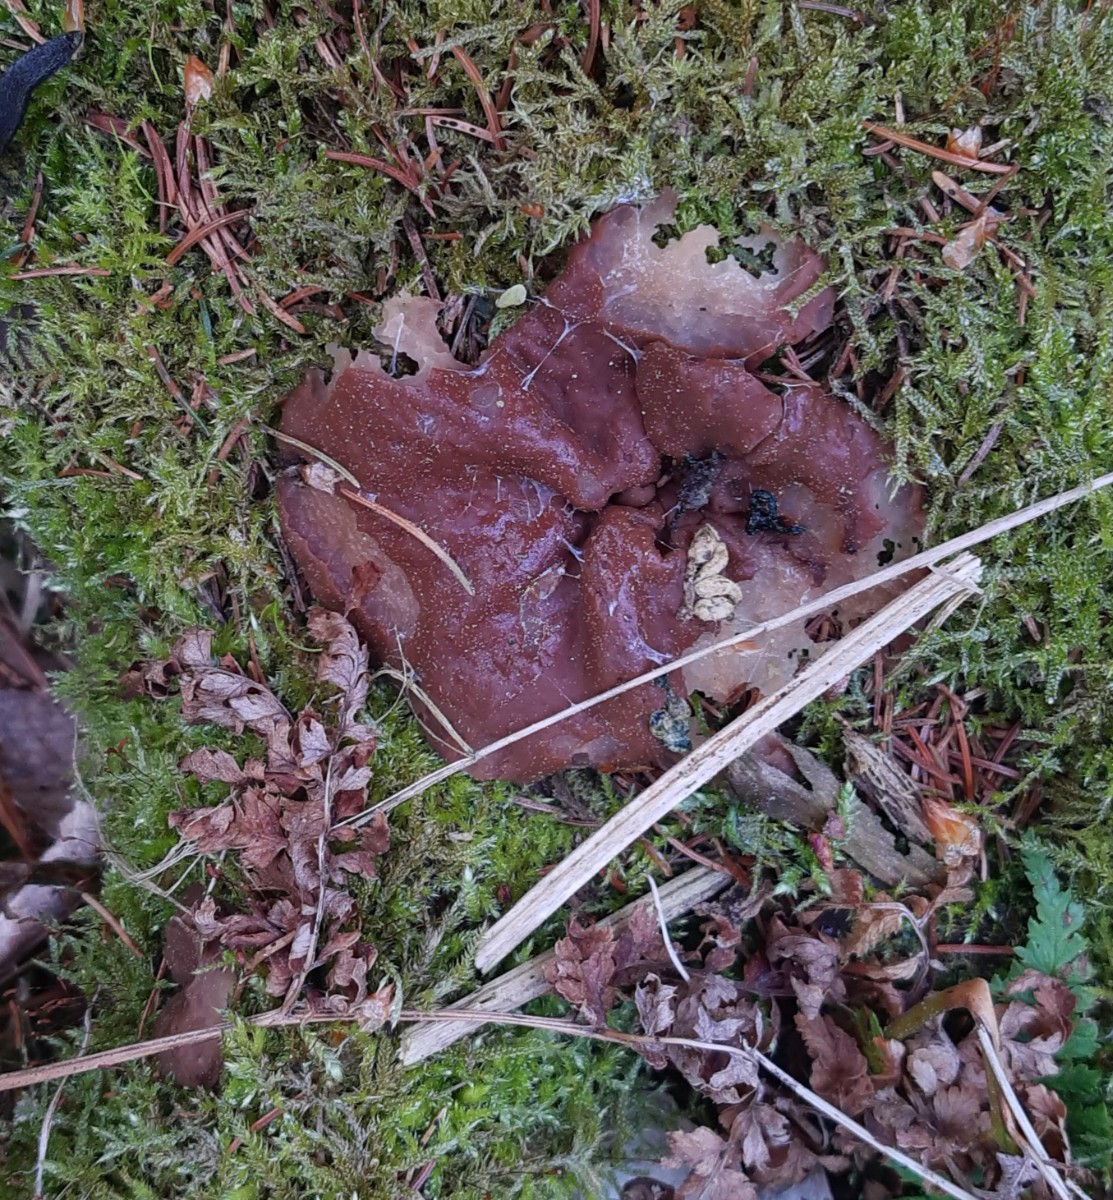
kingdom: Fungi
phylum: Ascomycota
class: Pezizomycetes
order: Pezizales
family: Discinaceae
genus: Discina
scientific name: Discina ancilis
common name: udbredt stenmorkel
